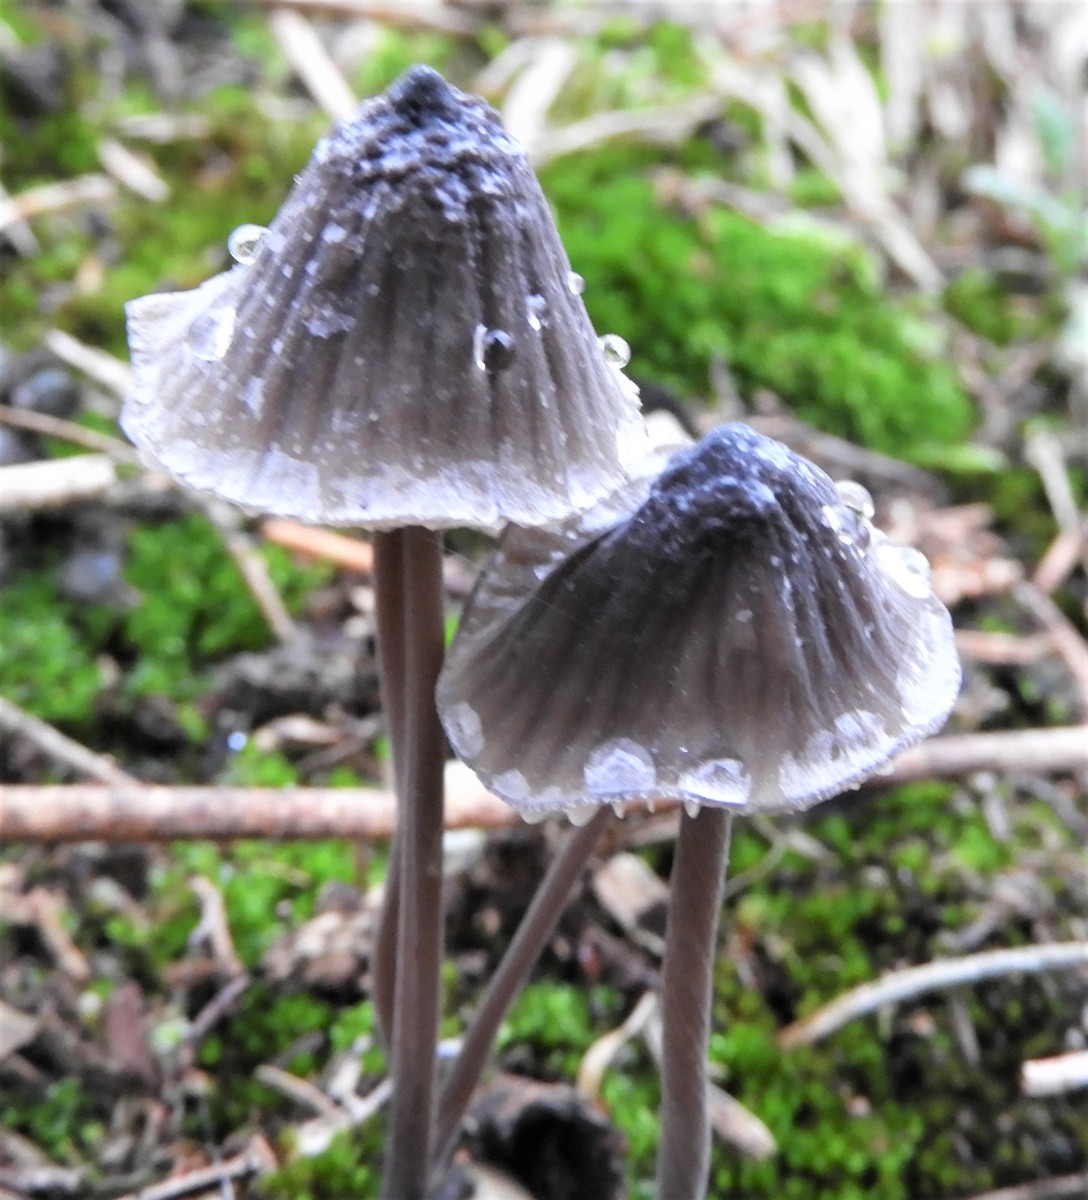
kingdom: Fungi
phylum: Basidiomycota
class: Agaricomycetes
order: Agaricales
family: Mycenaceae
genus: Mycena
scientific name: Mycena galopus
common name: hvidmælket huesvamp
